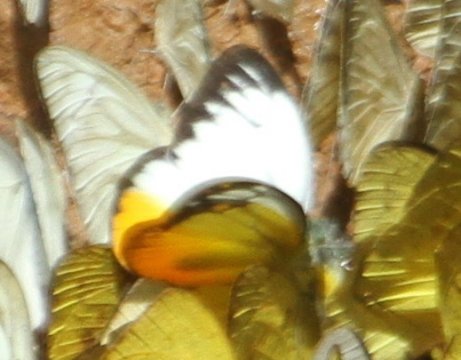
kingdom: Animalia
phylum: Arthropoda
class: Insecta
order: Lepidoptera
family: Pieridae
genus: Cepora
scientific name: Cepora iudith
